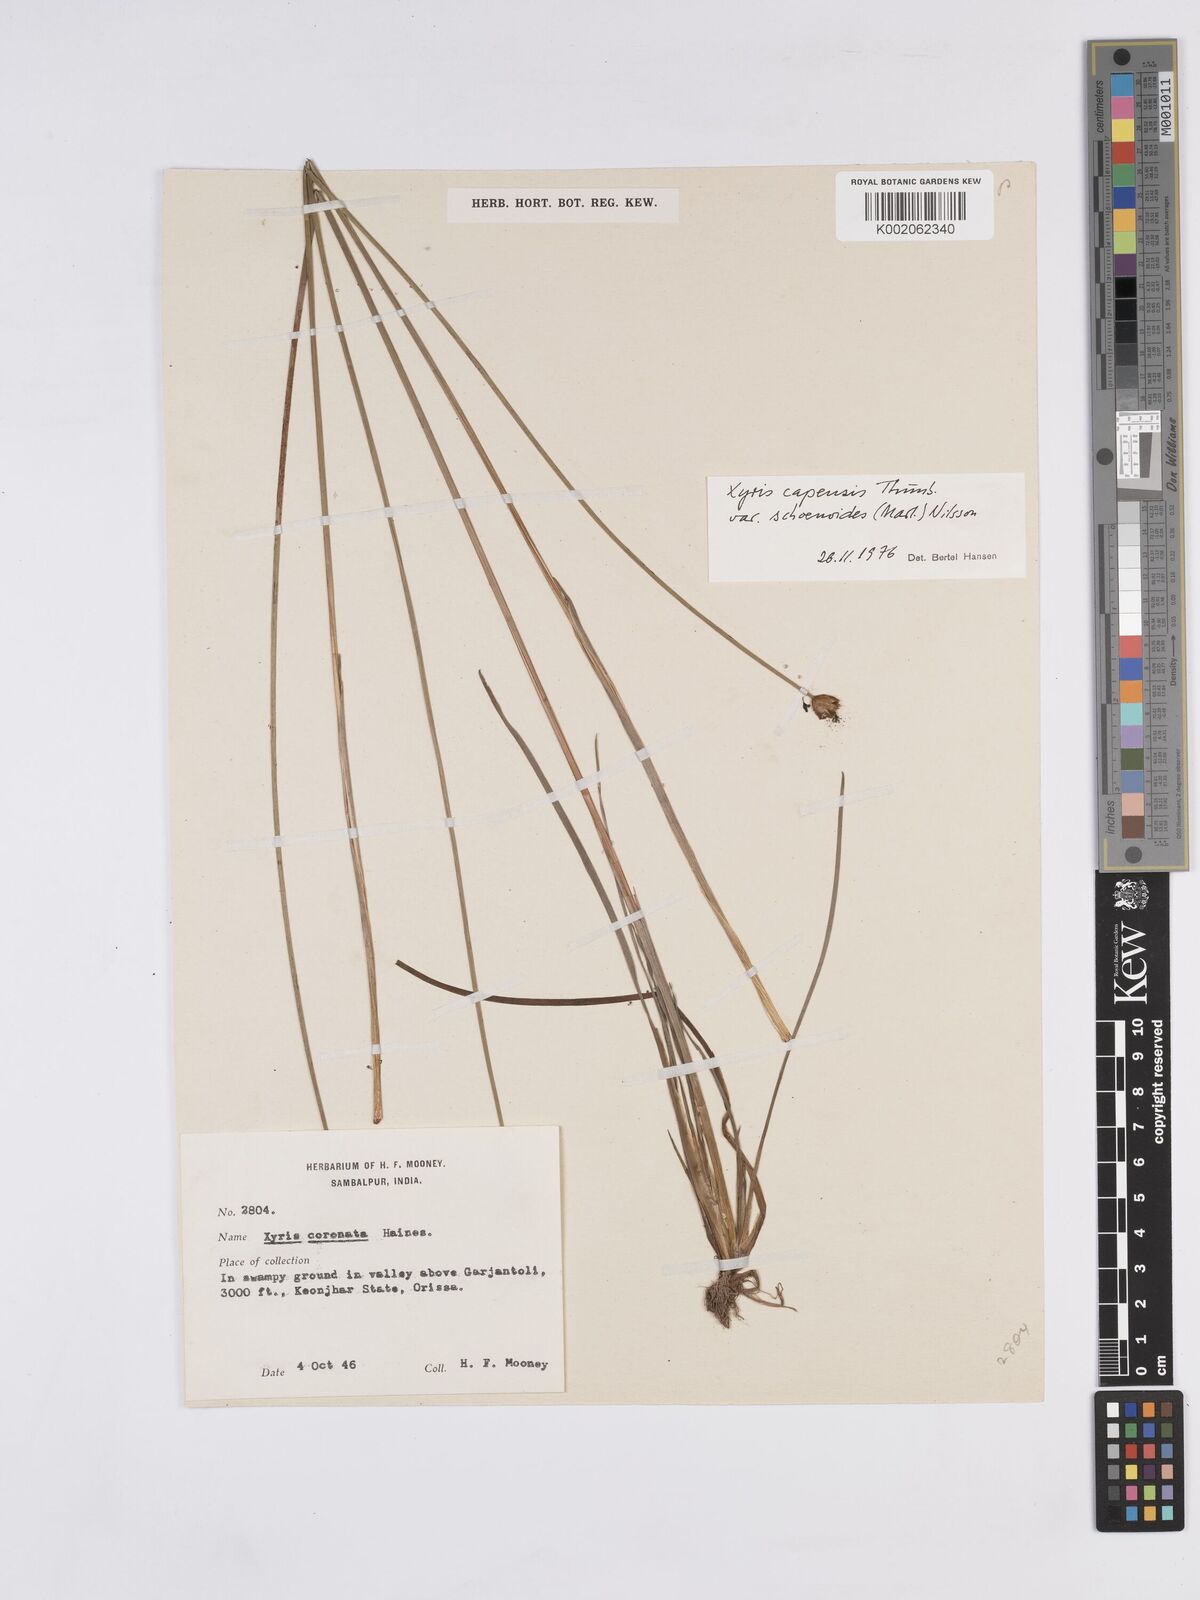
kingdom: Plantae
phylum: Tracheophyta
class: Liliopsida
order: Poales
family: Xyridaceae
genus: Xyris
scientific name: Xyris congensis
